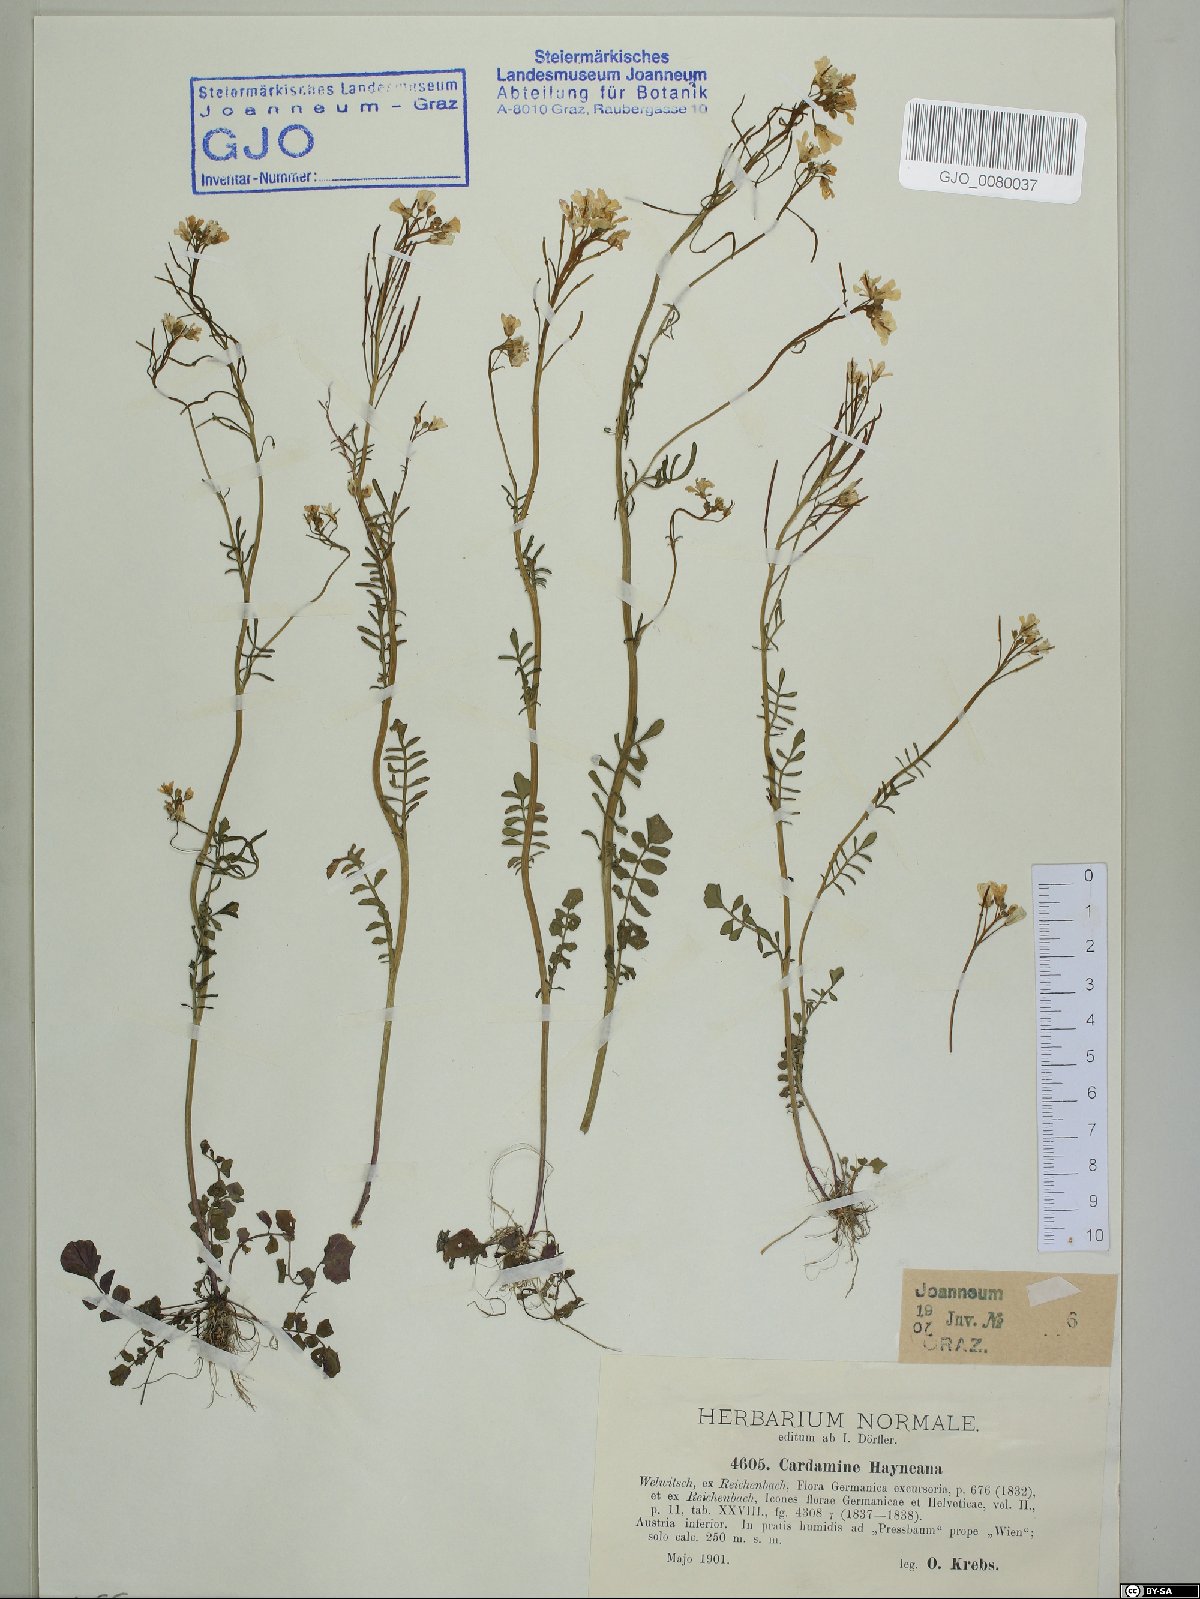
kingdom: Plantae
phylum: Tracheophyta
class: Magnoliopsida
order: Brassicales
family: Brassicaceae
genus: Cardamine
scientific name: Cardamine matthioli
